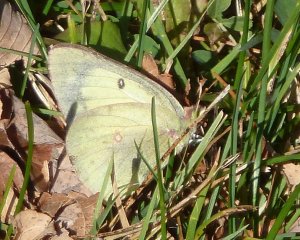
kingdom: Animalia
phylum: Arthropoda
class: Insecta
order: Lepidoptera
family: Pieridae
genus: Colias
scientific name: Colias philodice
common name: Clouded Sulphur
